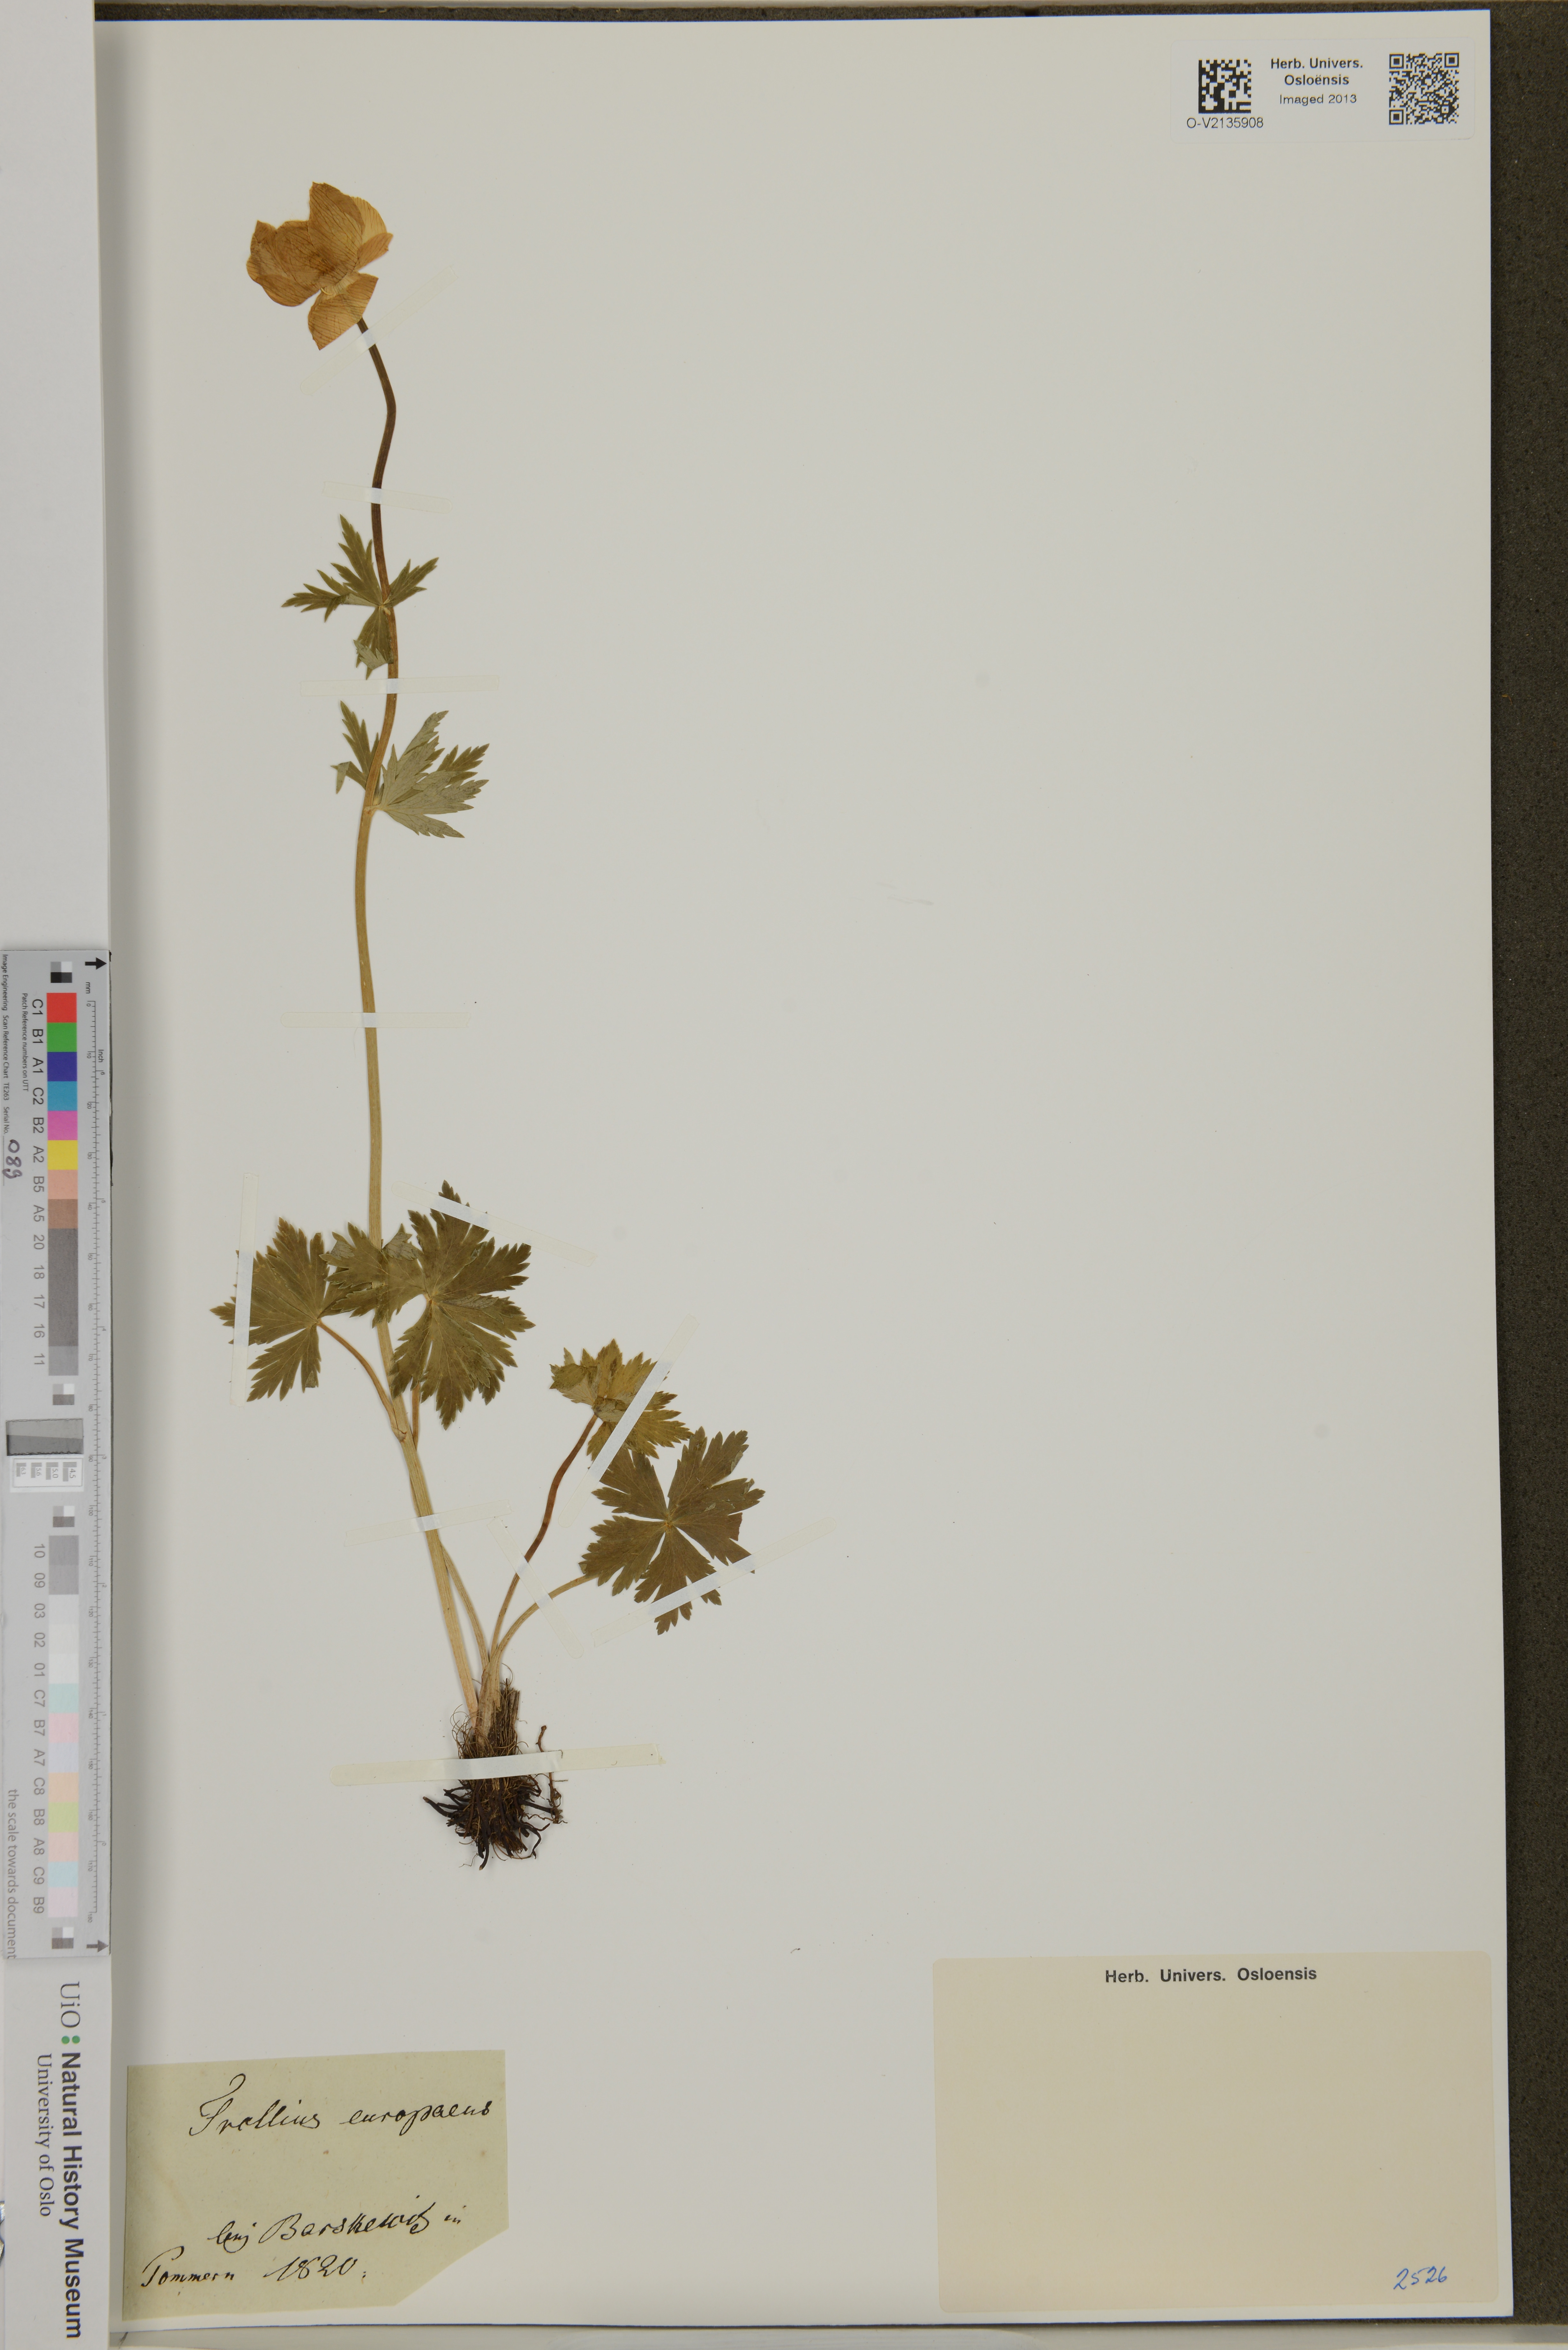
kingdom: Plantae
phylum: Tracheophyta
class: Magnoliopsida
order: Ranunculales
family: Ranunculaceae
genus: Trollius
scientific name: Trollius europaeus
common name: European globeflower
